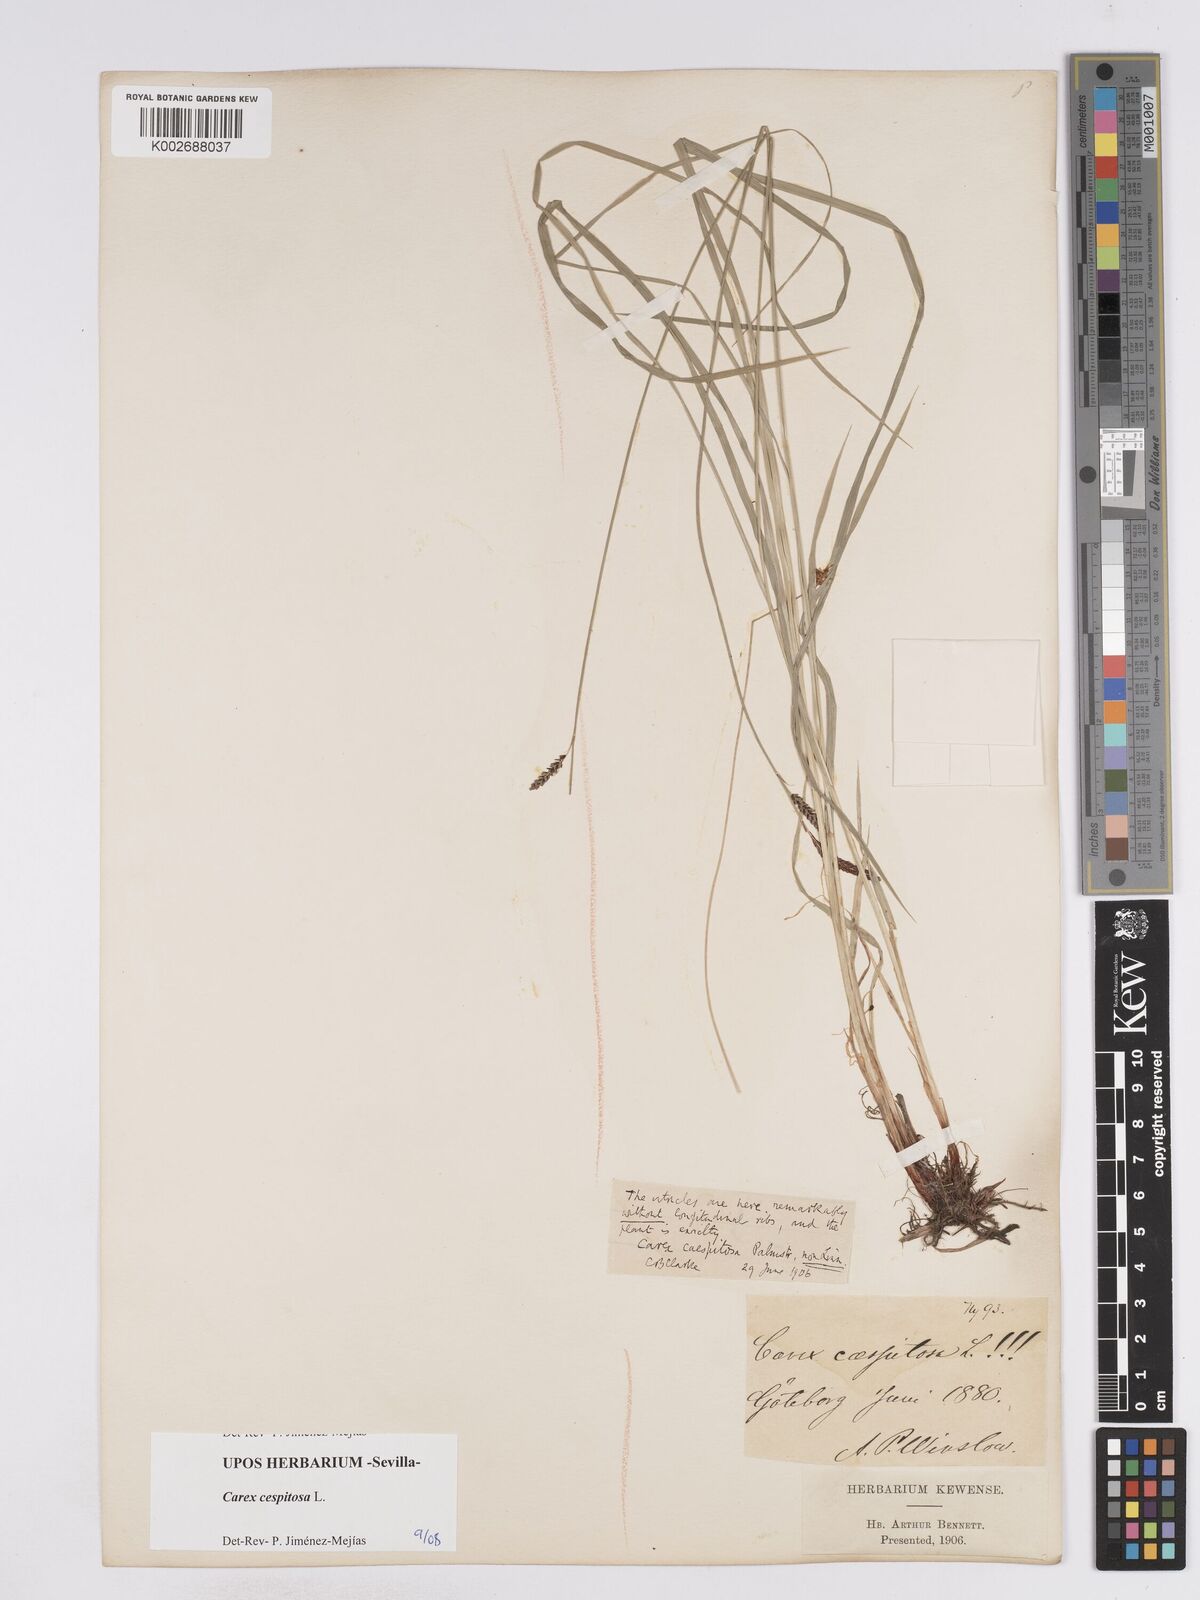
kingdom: Plantae
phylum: Tracheophyta
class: Liliopsida
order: Poales
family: Cyperaceae
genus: Carex
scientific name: Carex
